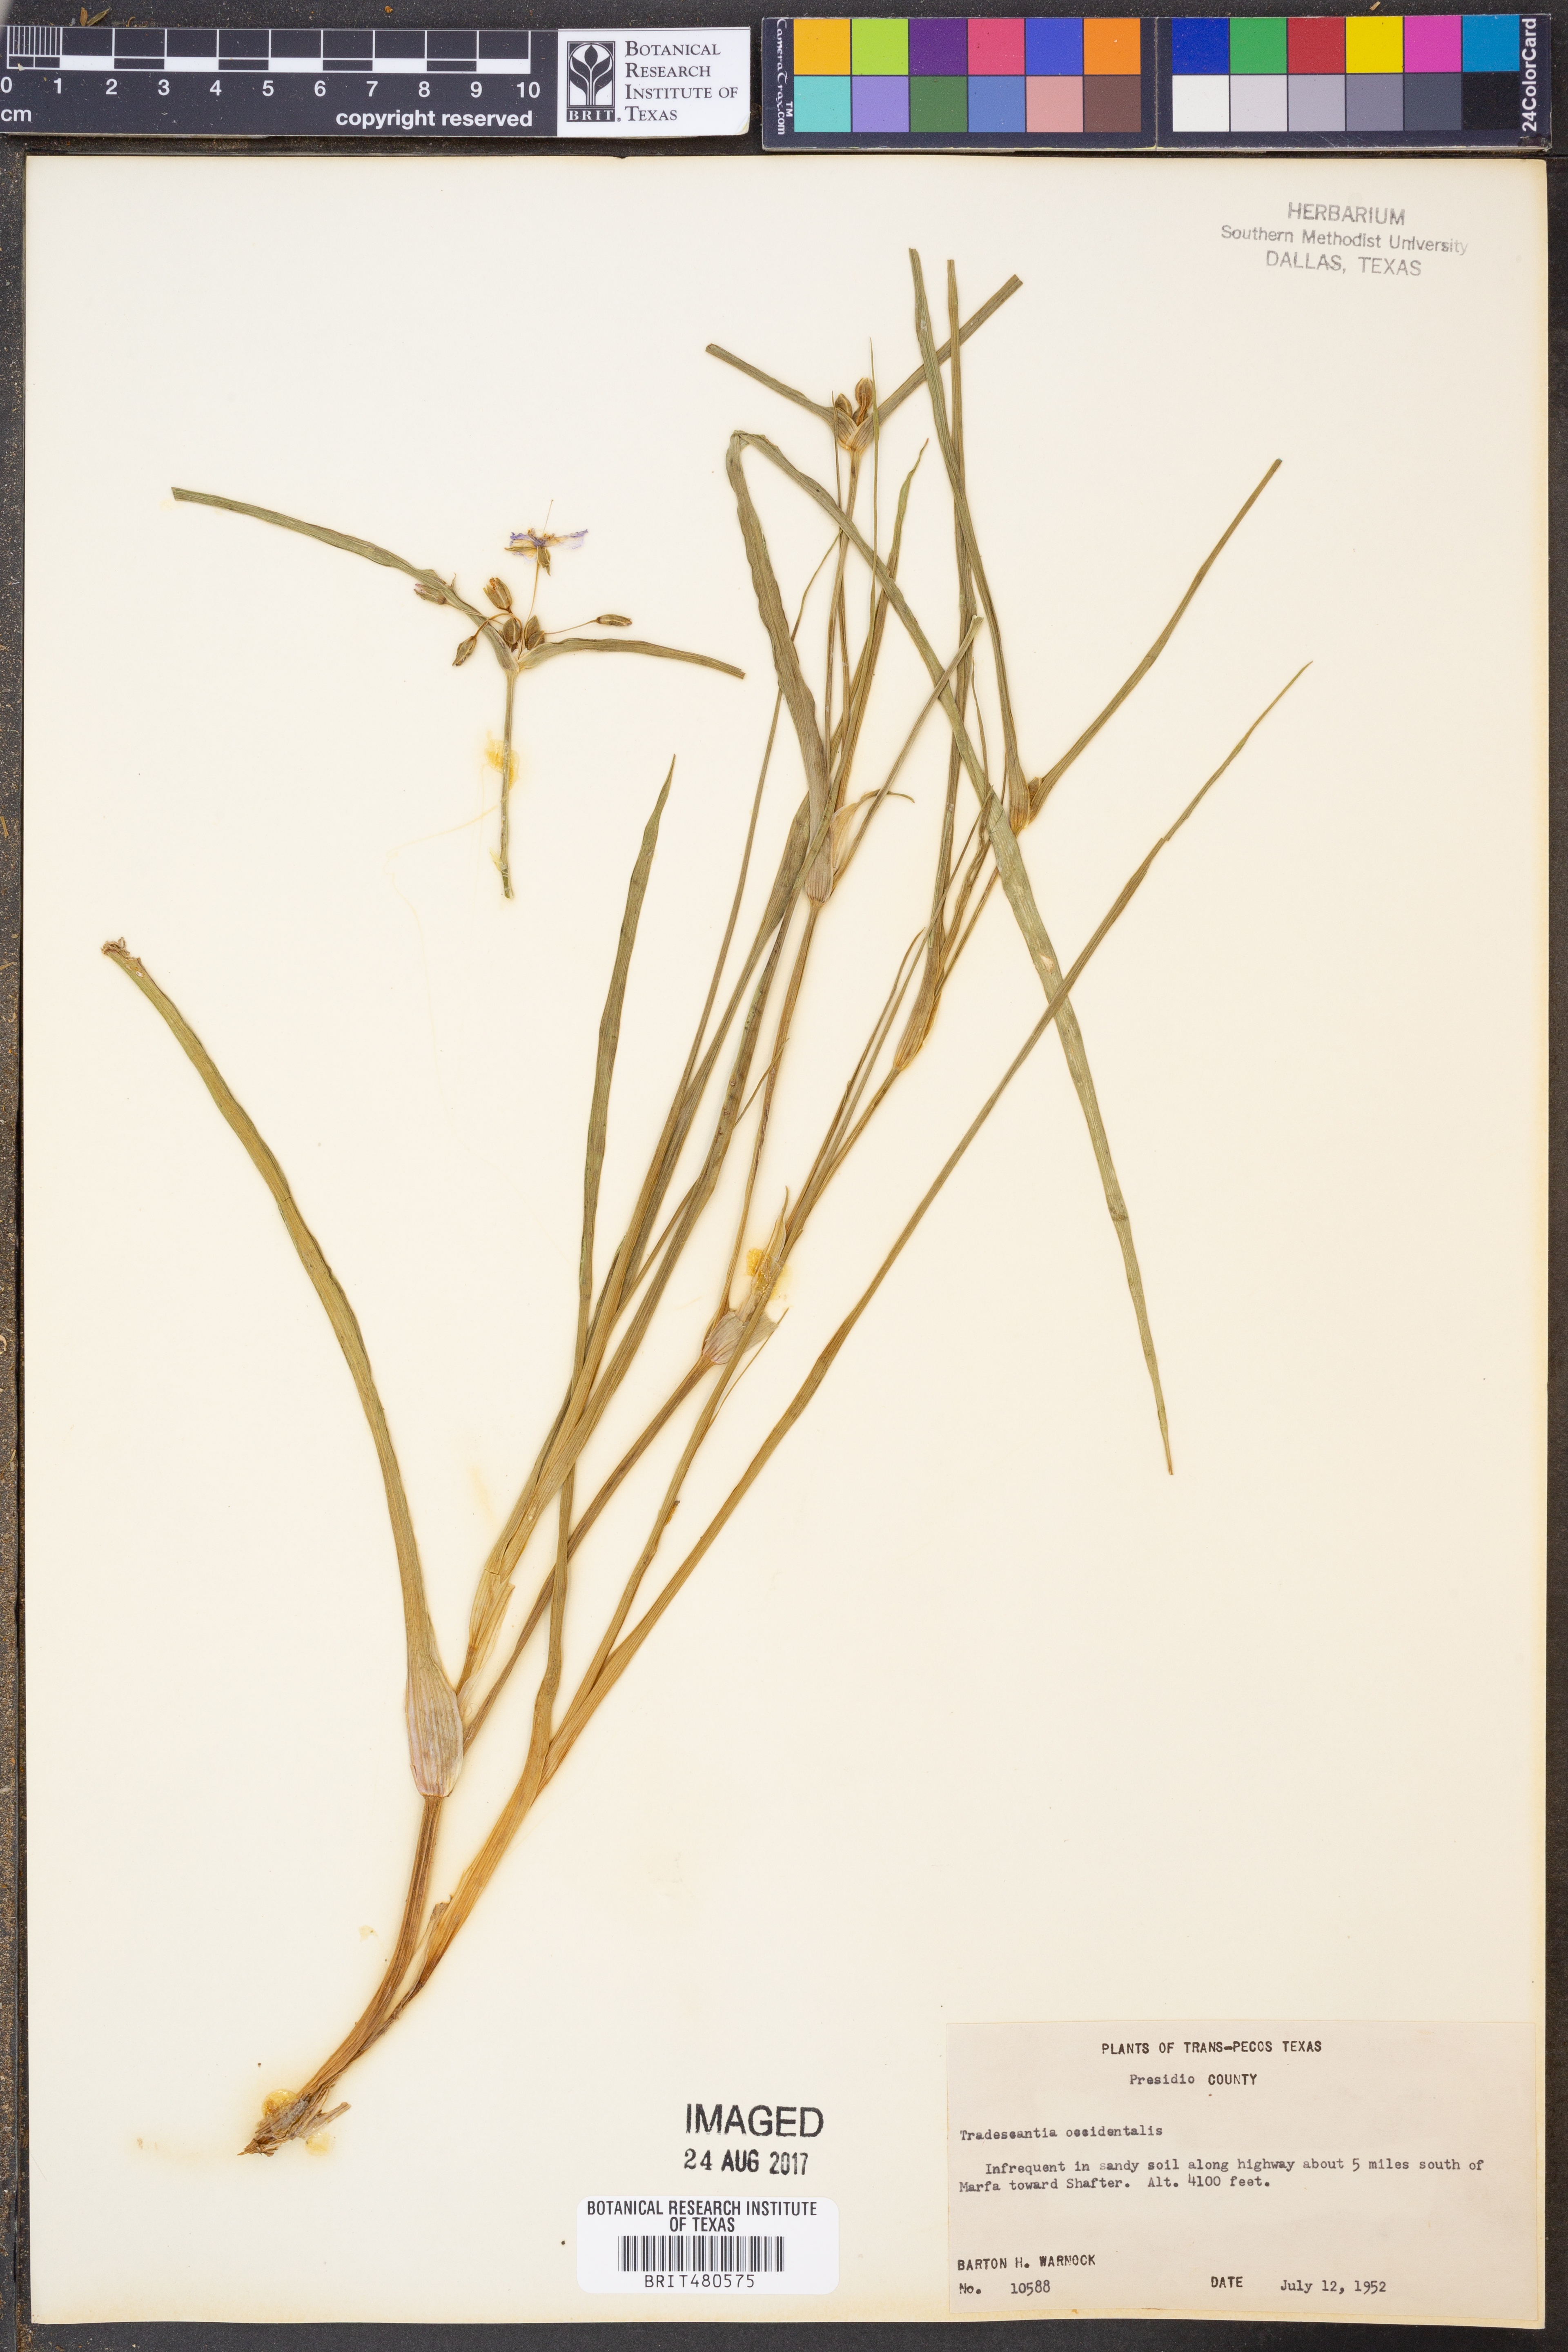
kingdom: Plantae
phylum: Tracheophyta
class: Liliopsida
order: Commelinales
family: Commelinaceae
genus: Tradescantia
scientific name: Tradescantia occidentalis
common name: Prairie spiderwort
